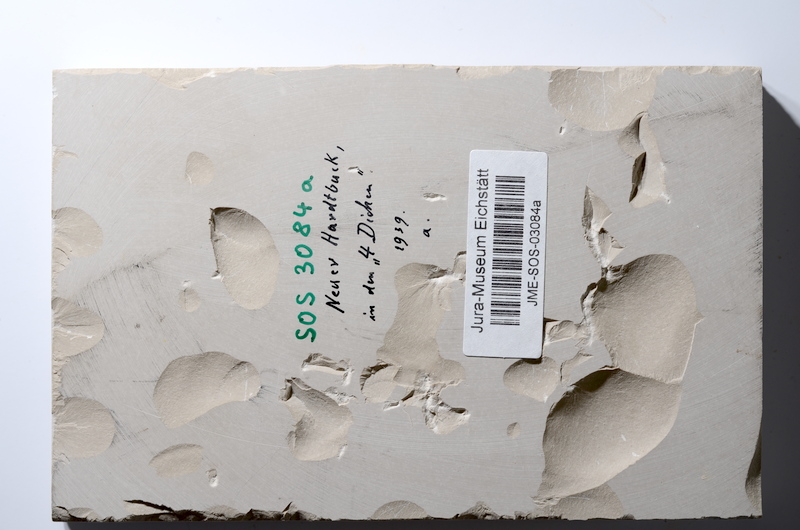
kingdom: Animalia
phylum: Chordata
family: Macrosemiidae
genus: Macrosemius
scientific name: Macrosemius rostratus
